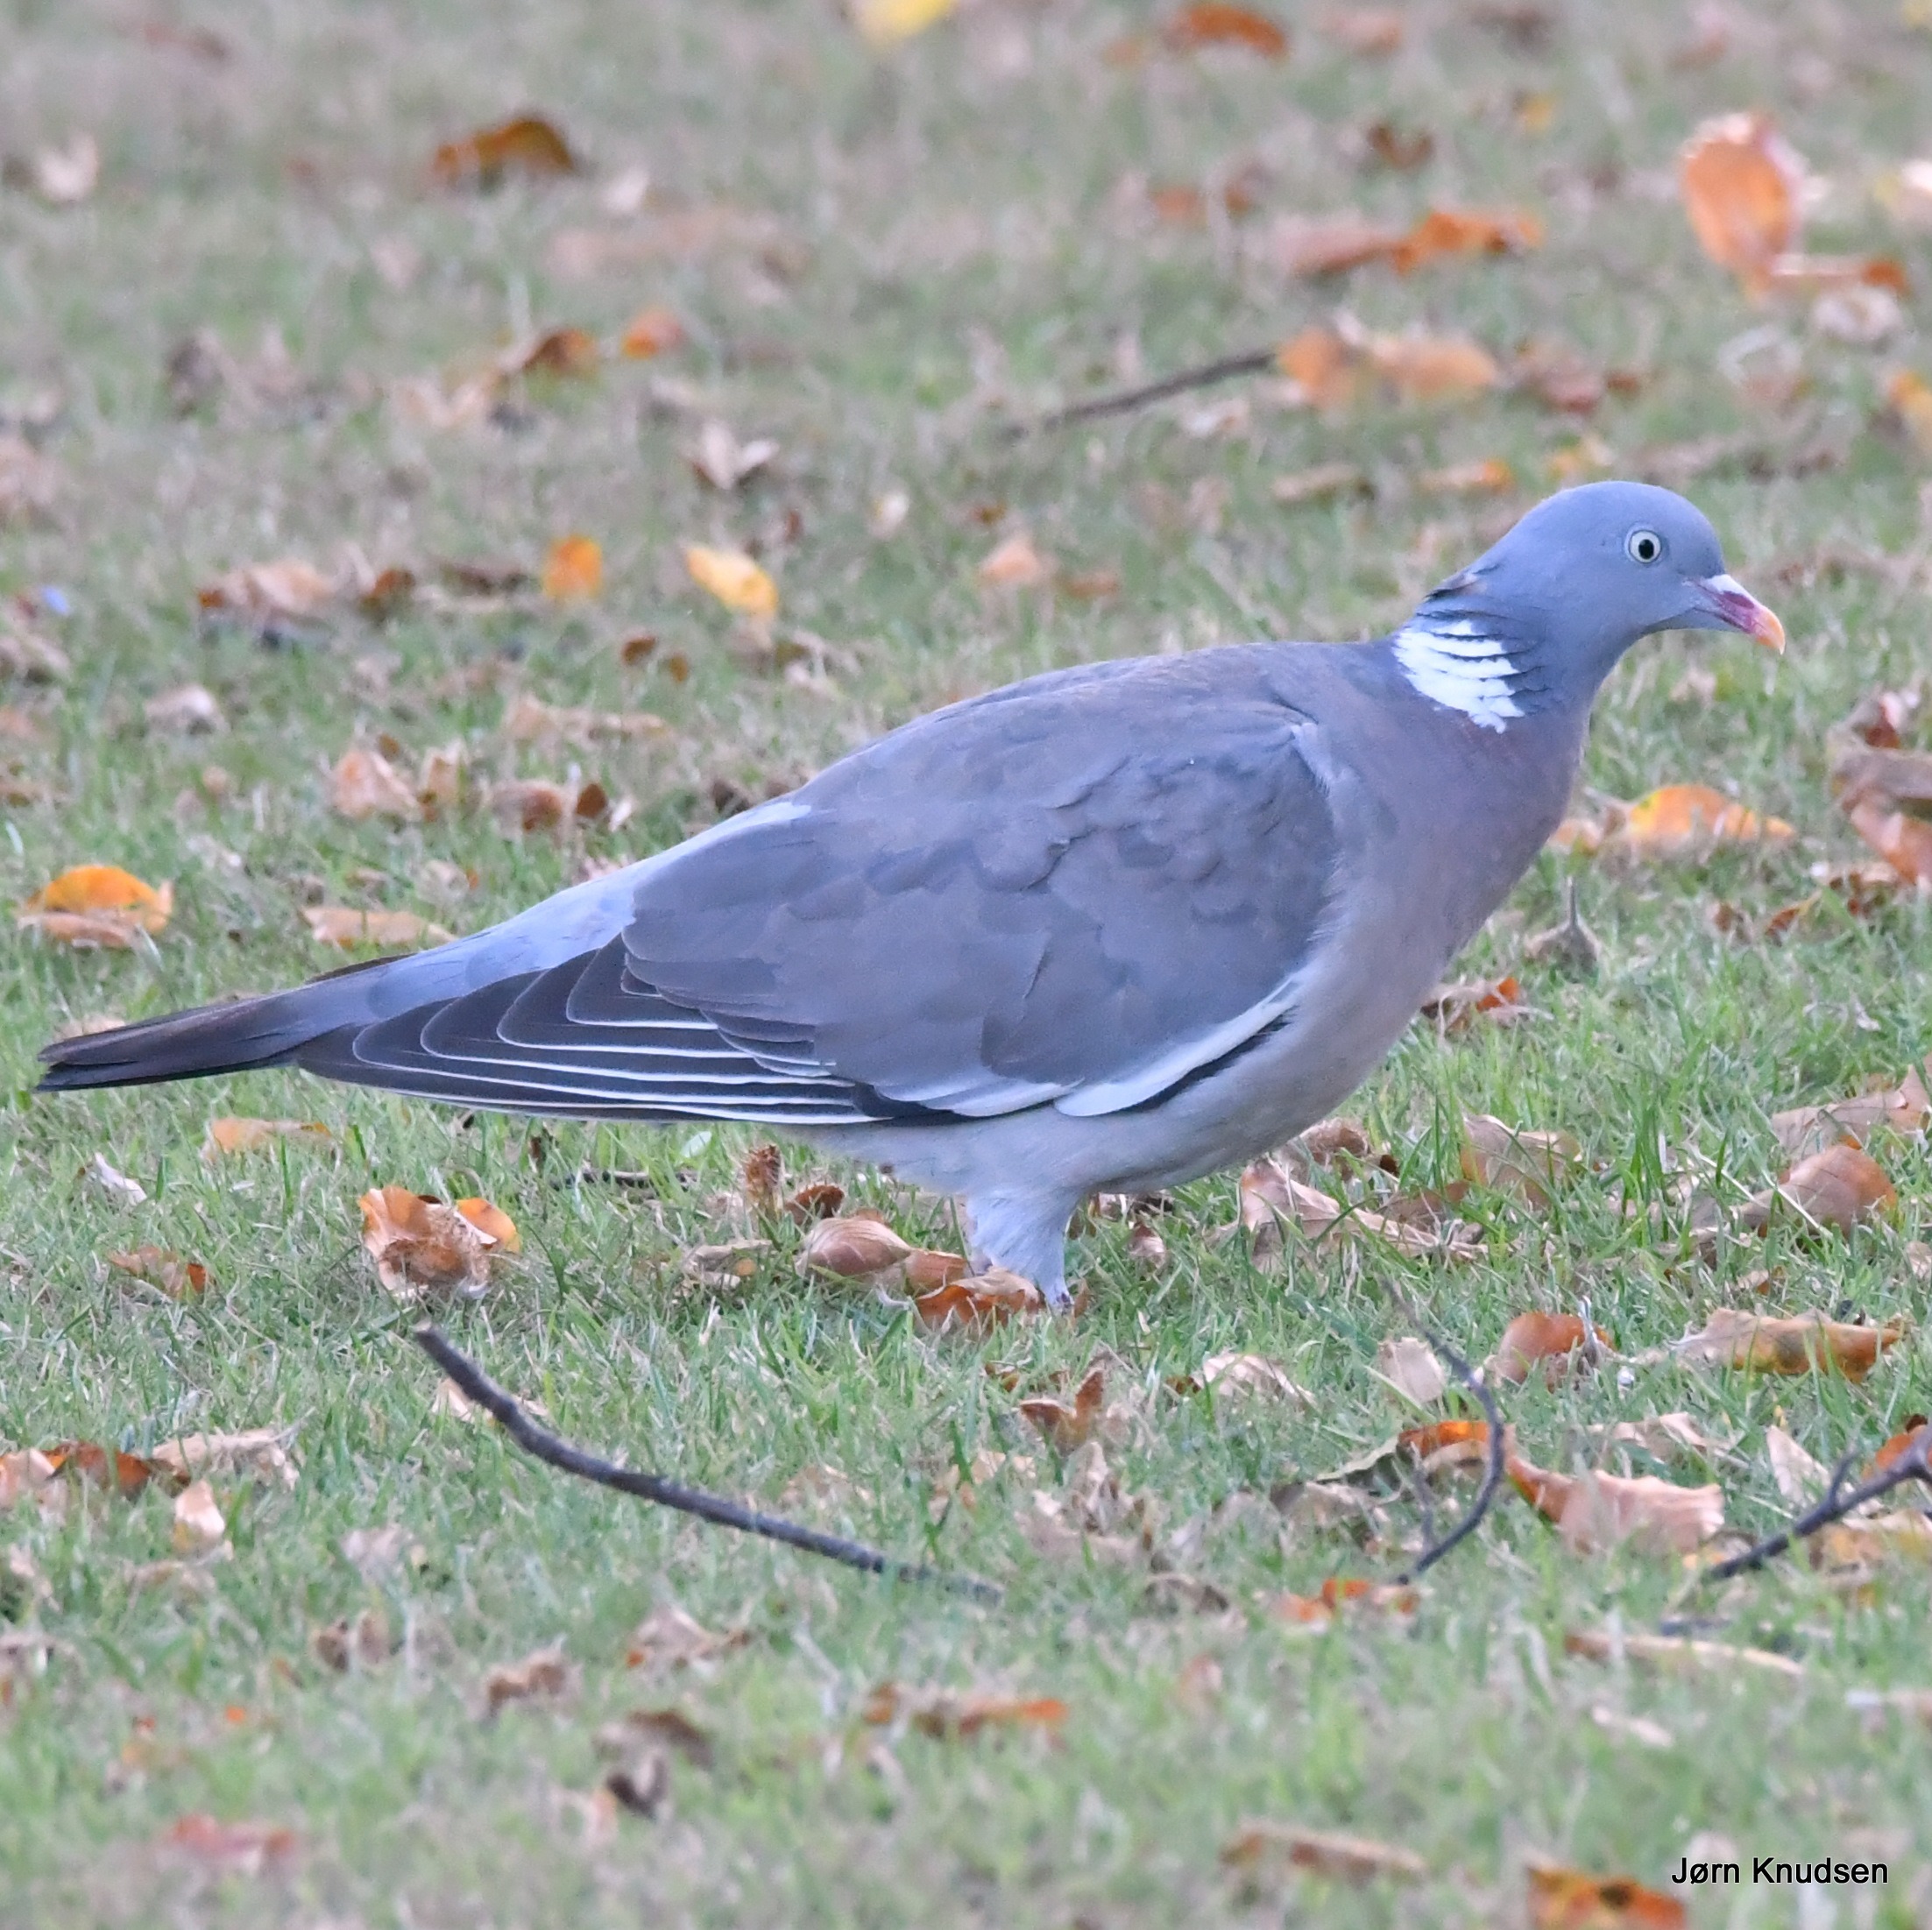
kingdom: Animalia
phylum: Chordata
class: Aves
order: Columbiformes
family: Columbidae
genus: Columba
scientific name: Columba palumbus
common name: Ringdue
